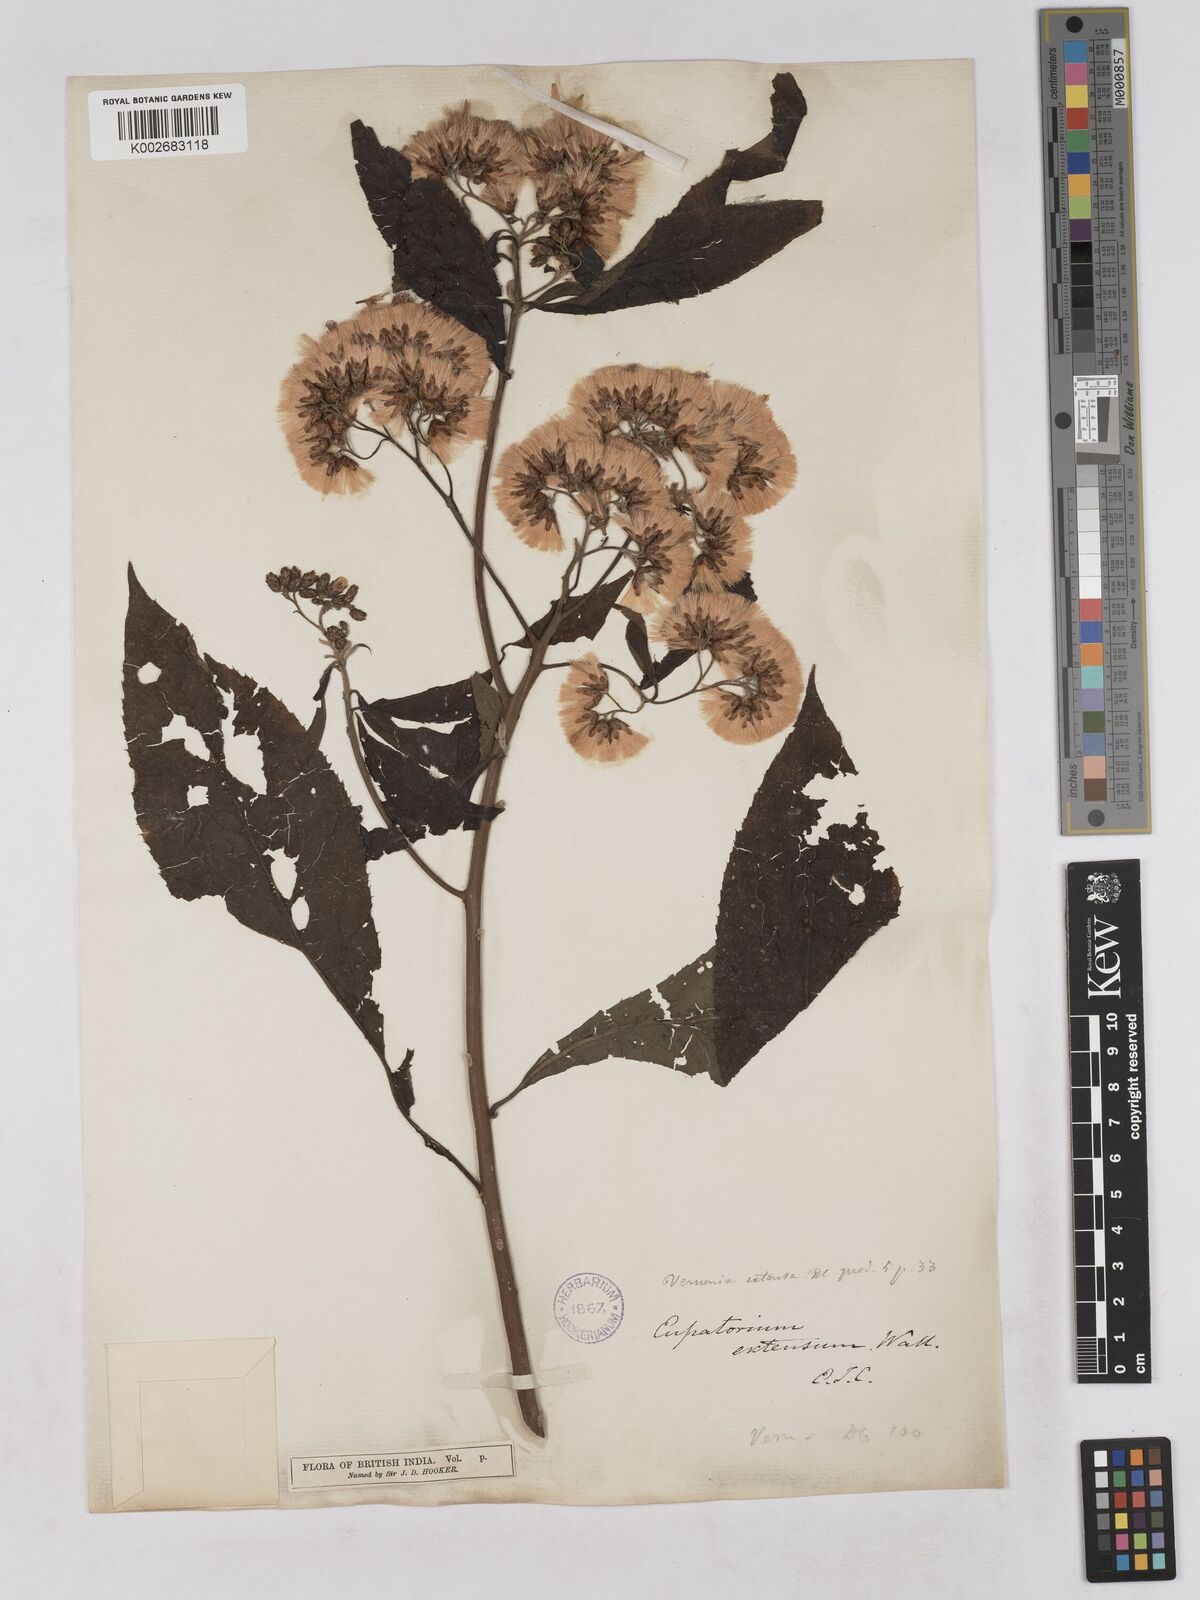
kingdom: Plantae
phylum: Tracheophyta
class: Magnoliopsida
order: Asterales
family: Asteraceae
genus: Gymnanthemum
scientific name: Gymnanthemum extensum
